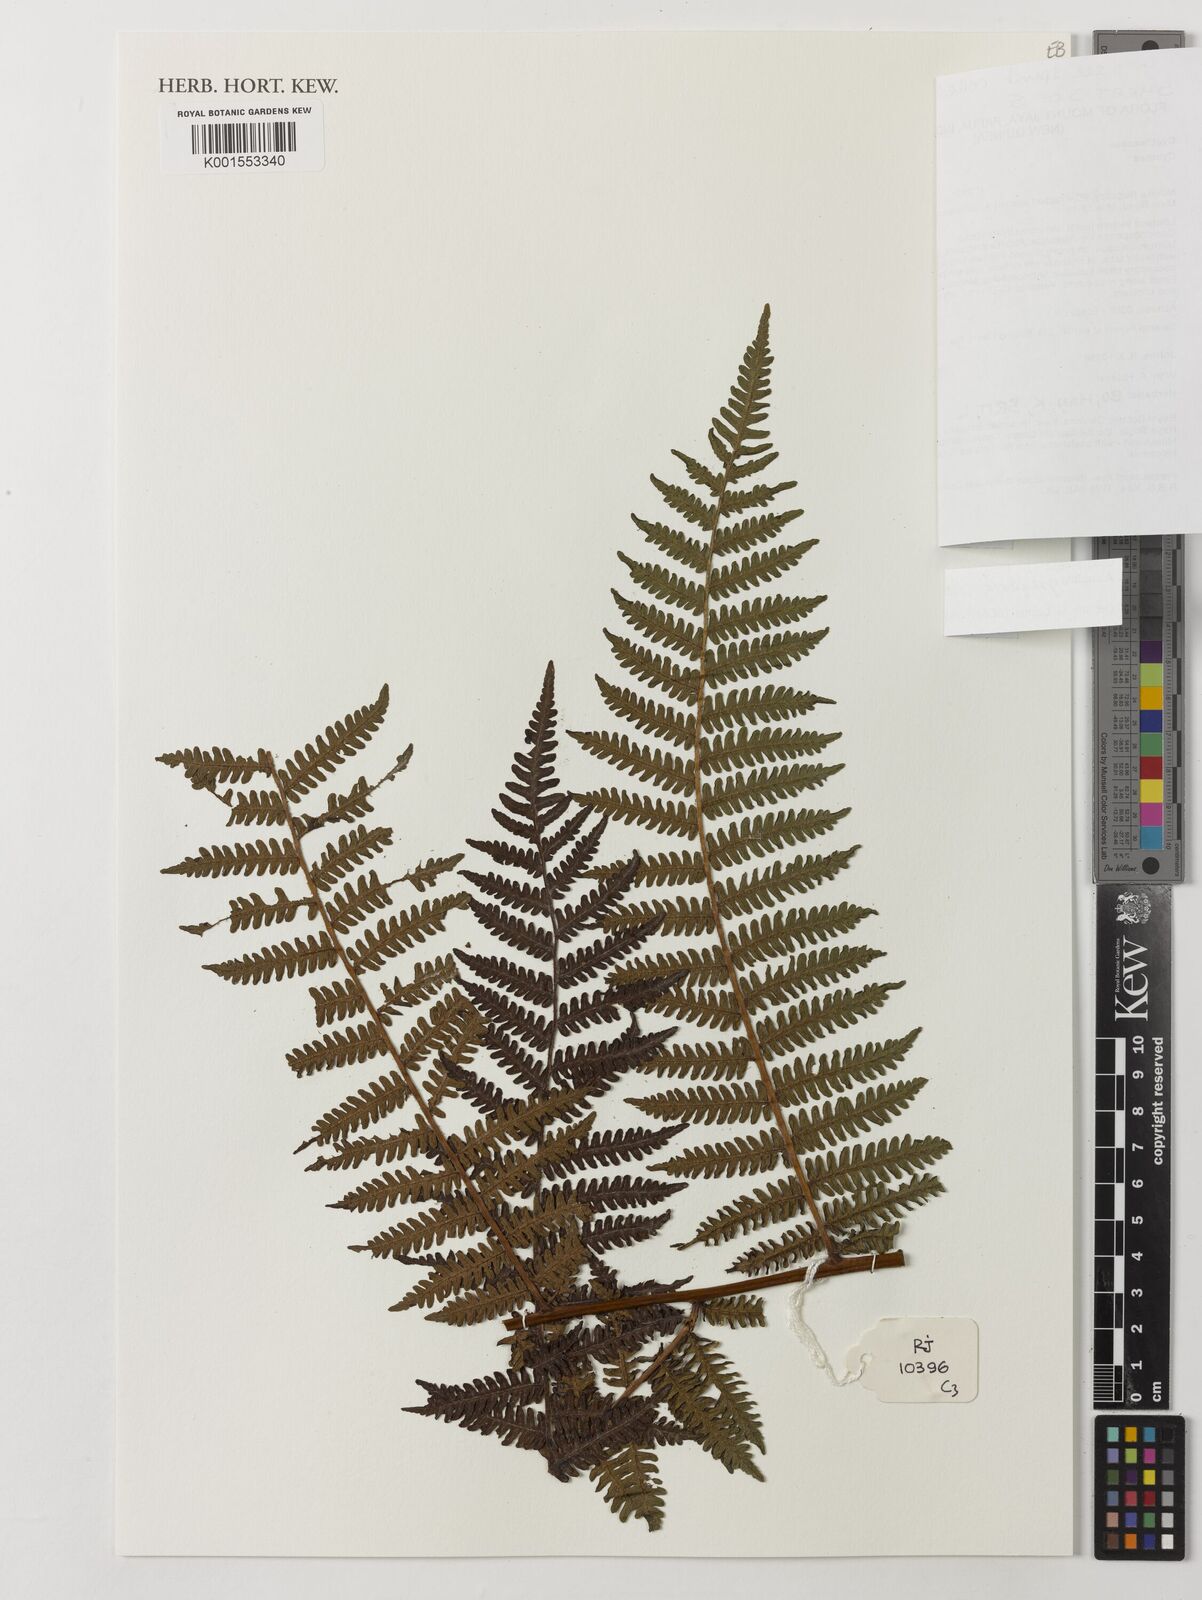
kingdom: Plantae
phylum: Tracheophyta
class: Polypodiopsida
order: Cyatheales
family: Cyatheaceae
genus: Alsophila
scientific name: Alsophila gregaria
